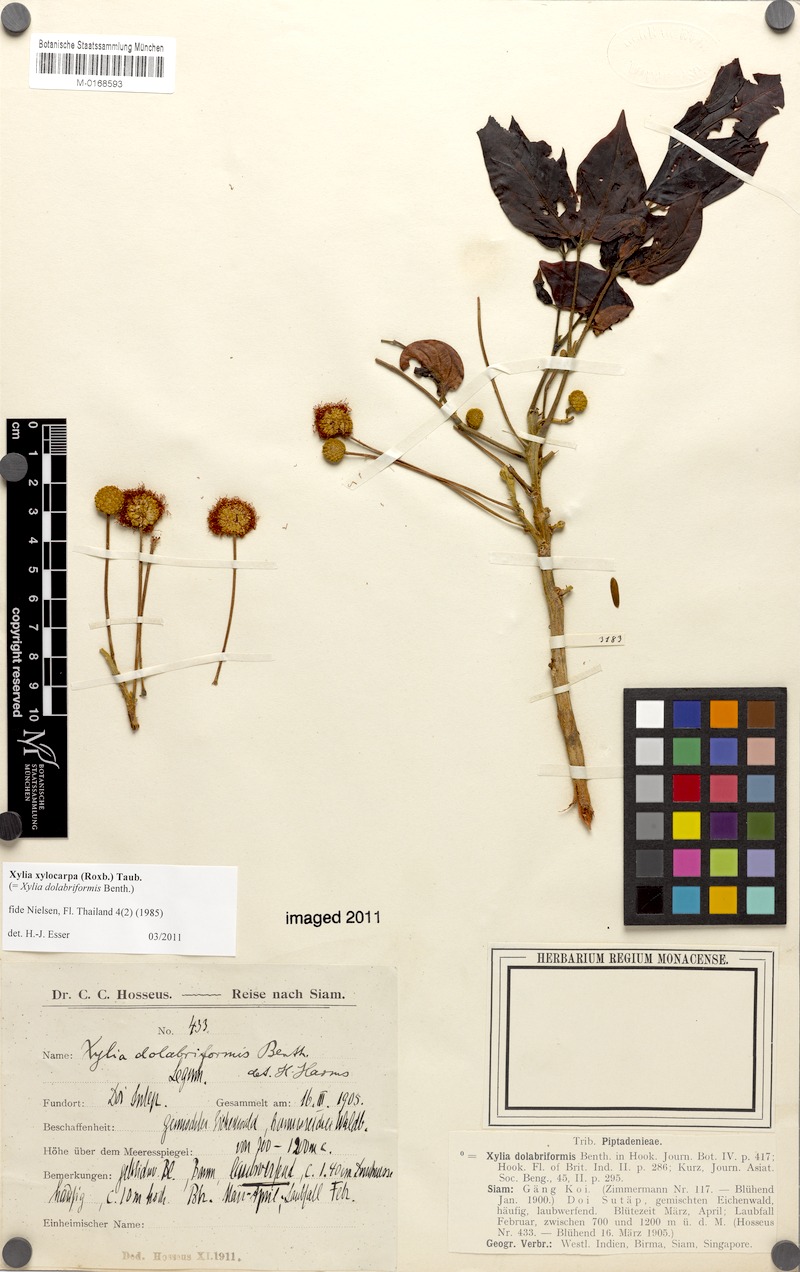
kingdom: Plantae
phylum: Tracheophyta
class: Magnoliopsida
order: Fabales
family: Fabaceae
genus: Xylia
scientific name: Xylia xylocarpa
